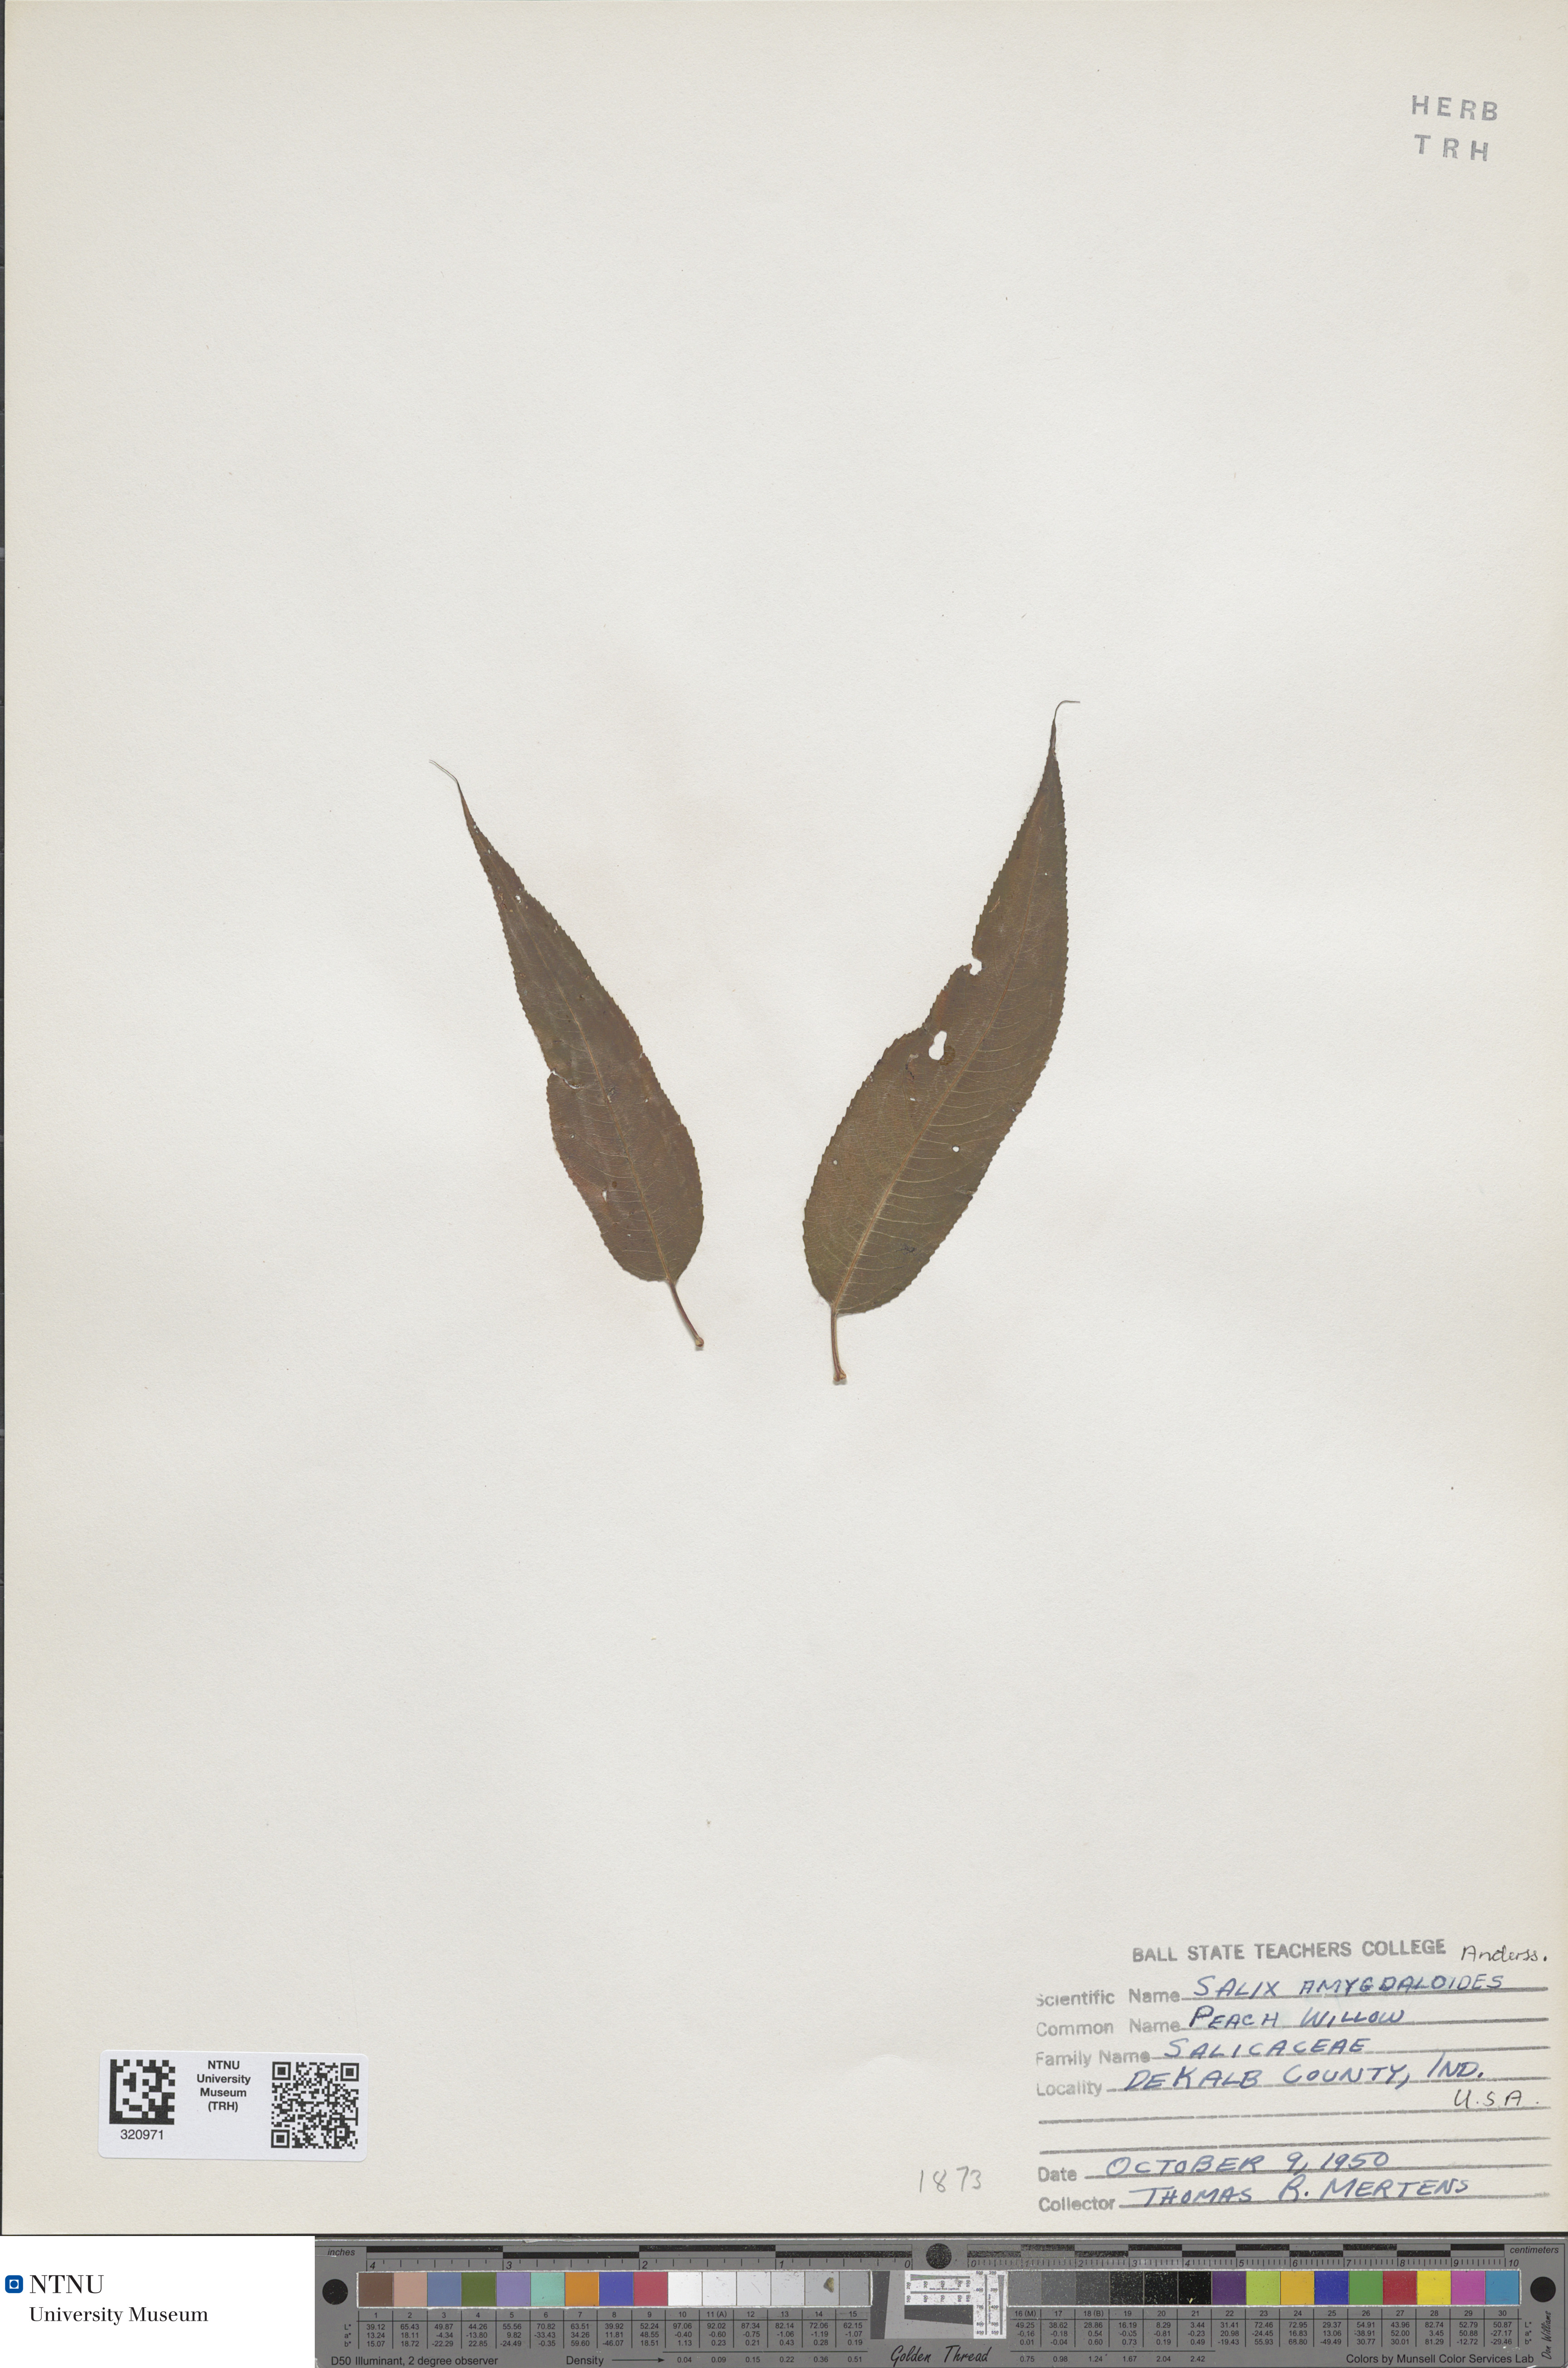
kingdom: Plantae
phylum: Tracheophyta
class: Magnoliopsida
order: Malpighiales
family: Salicaceae
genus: Salix
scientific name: Salix amygdaloides
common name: Peach leaf willow
